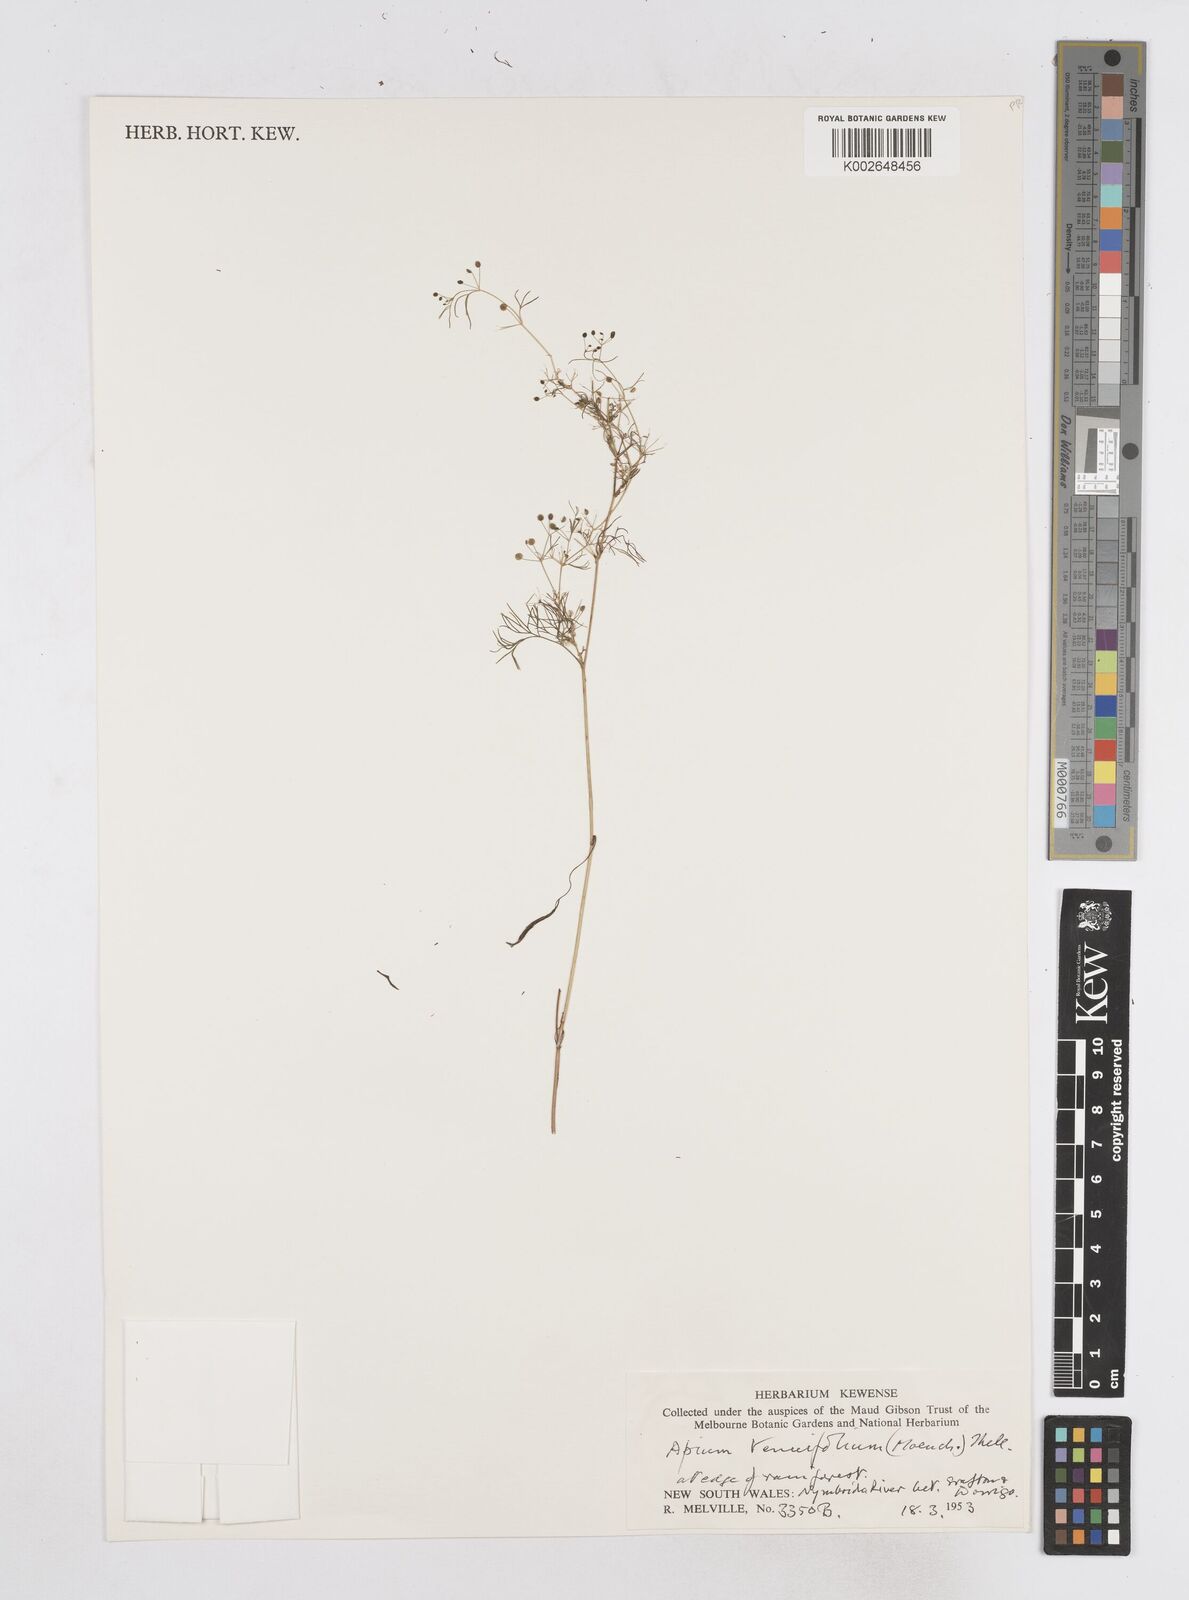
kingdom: Plantae
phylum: Tracheophyta
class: Magnoliopsida
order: Apiales
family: Apiaceae
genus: Cyclospermum
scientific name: Cyclospermum leptophyllum
